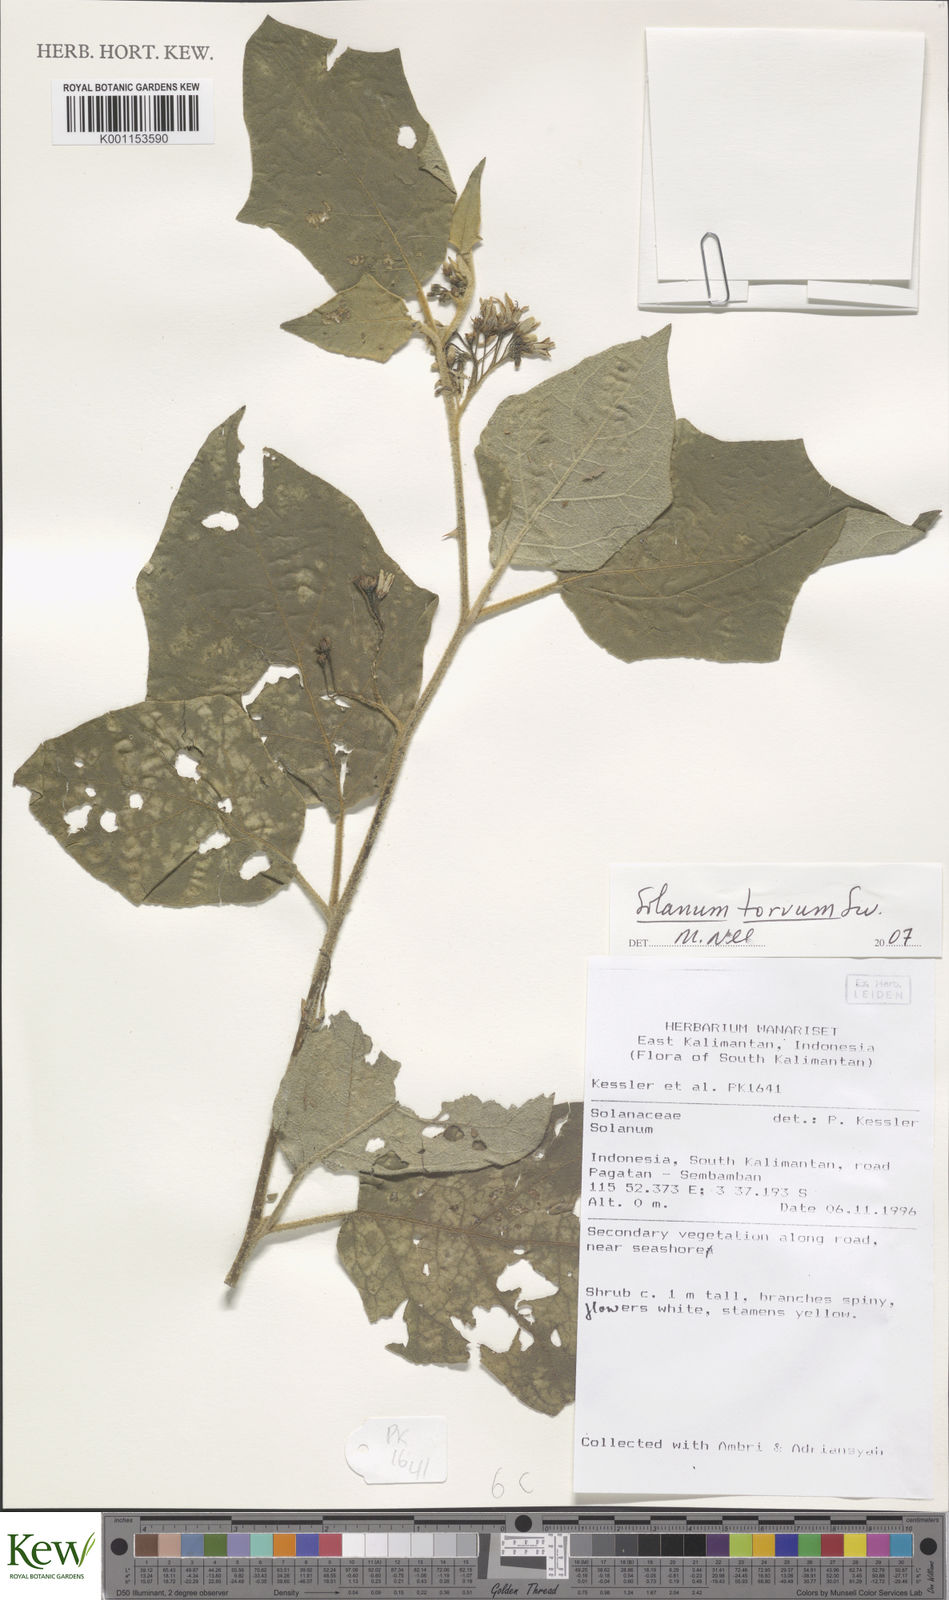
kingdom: Plantae
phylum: Tracheophyta
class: Magnoliopsida
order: Solanales
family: Solanaceae
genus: Solanum
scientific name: Solanum torvum
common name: Turkey berry
